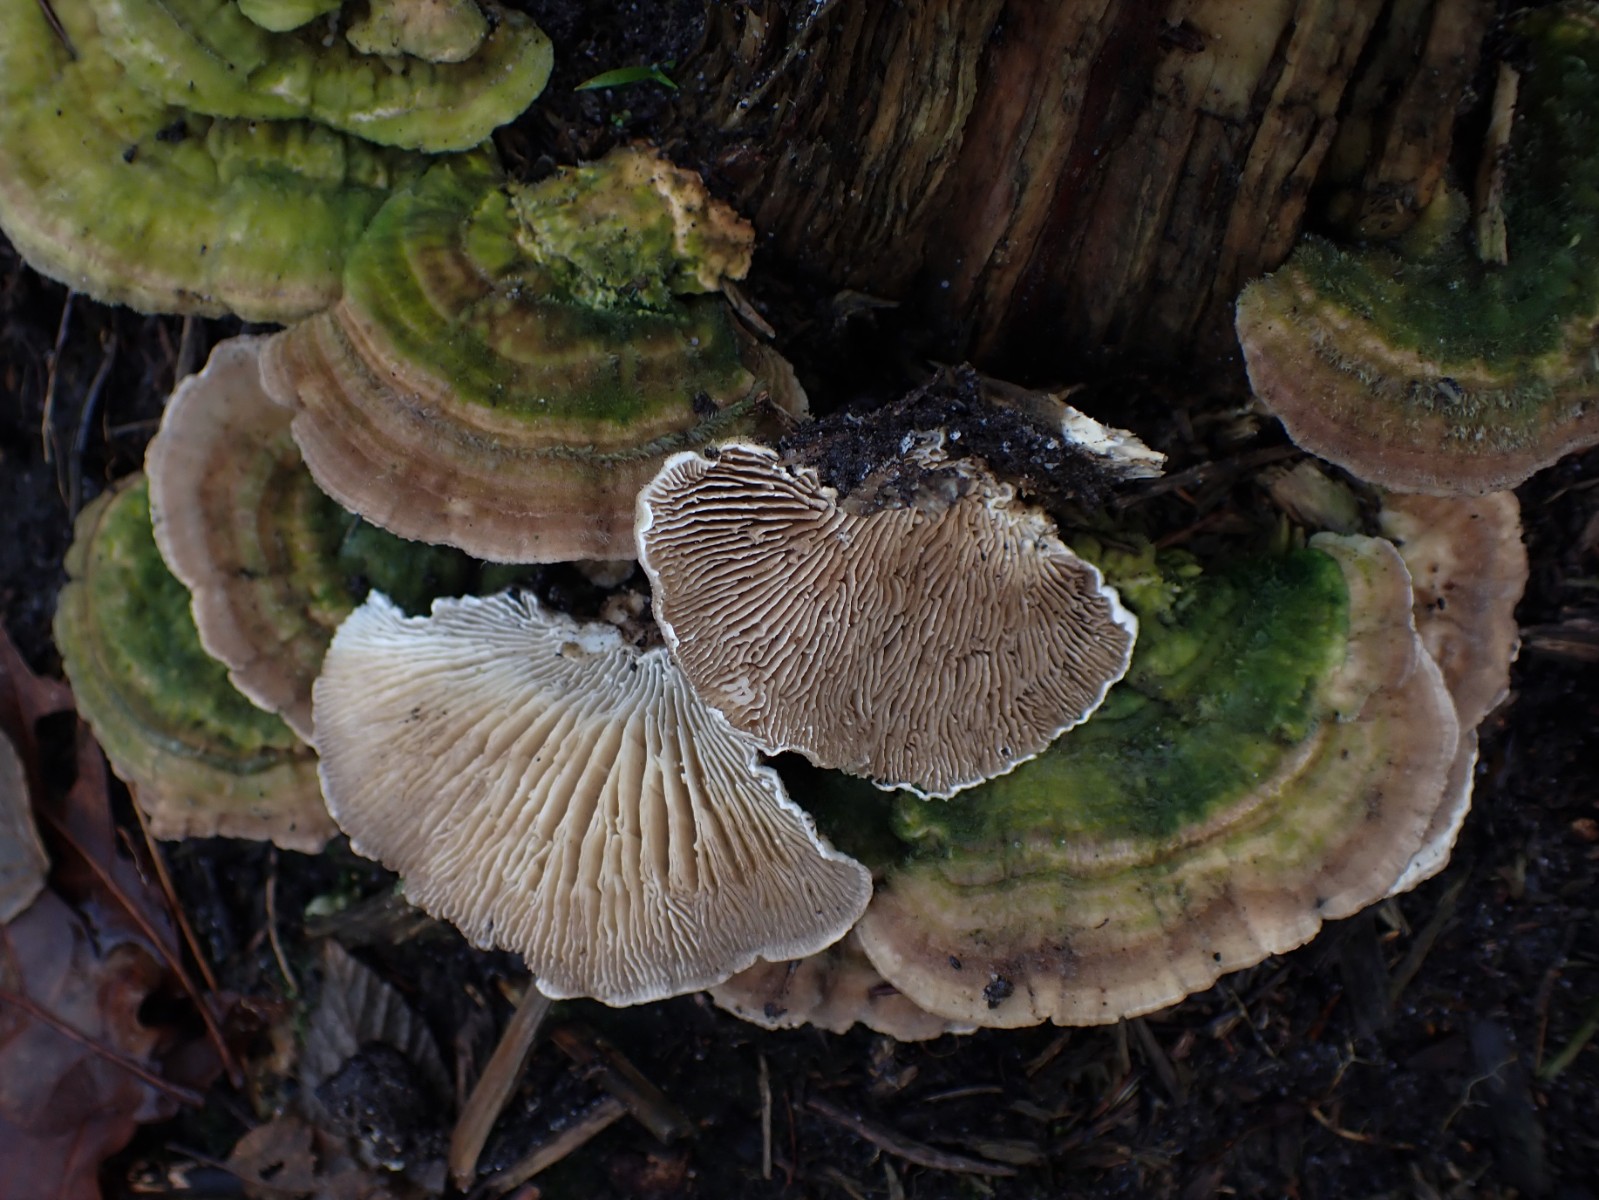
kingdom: Fungi
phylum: Basidiomycota
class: Agaricomycetes
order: Polyporales
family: Polyporaceae
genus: Lenzites
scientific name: Lenzites betulinus
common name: birke-læderporesvamp
